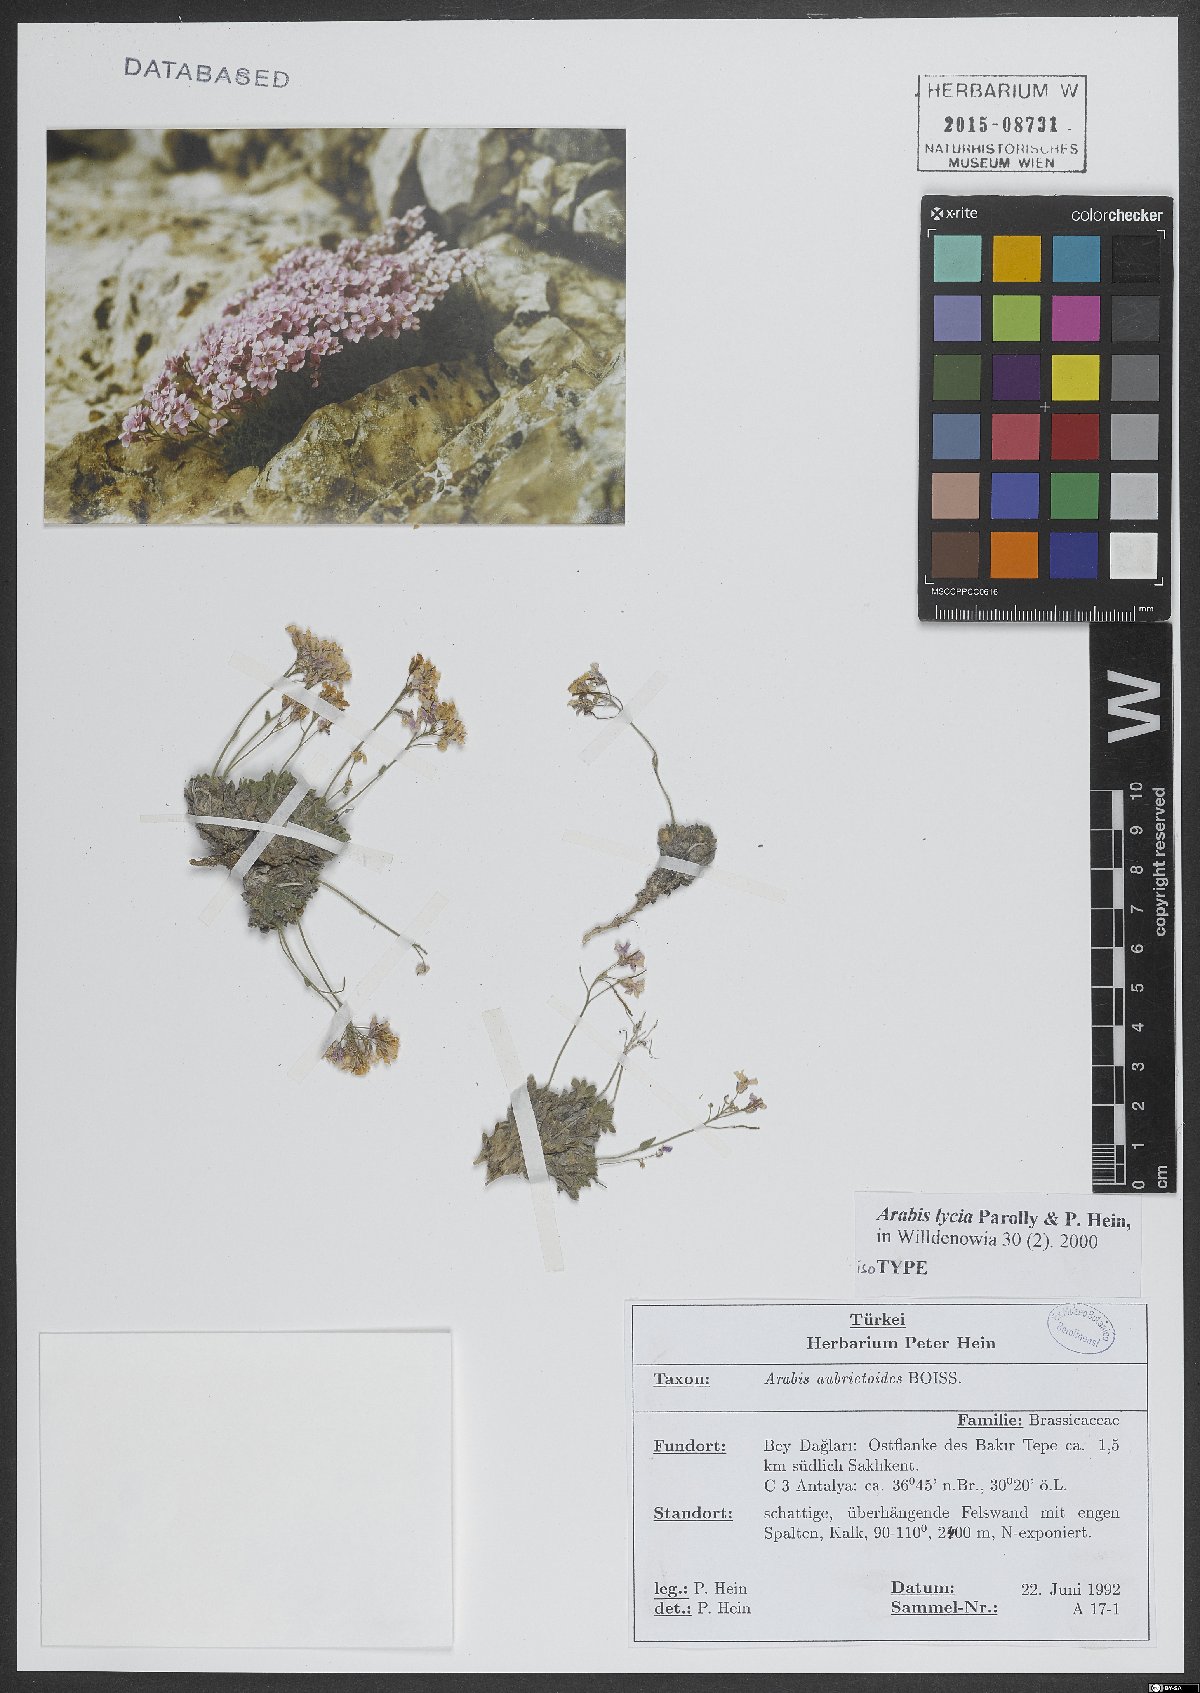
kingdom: Plantae
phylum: Tracheophyta
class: Magnoliopsida
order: Brassicales
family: Brassicaceae
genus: Arabis
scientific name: Arabis lycia
